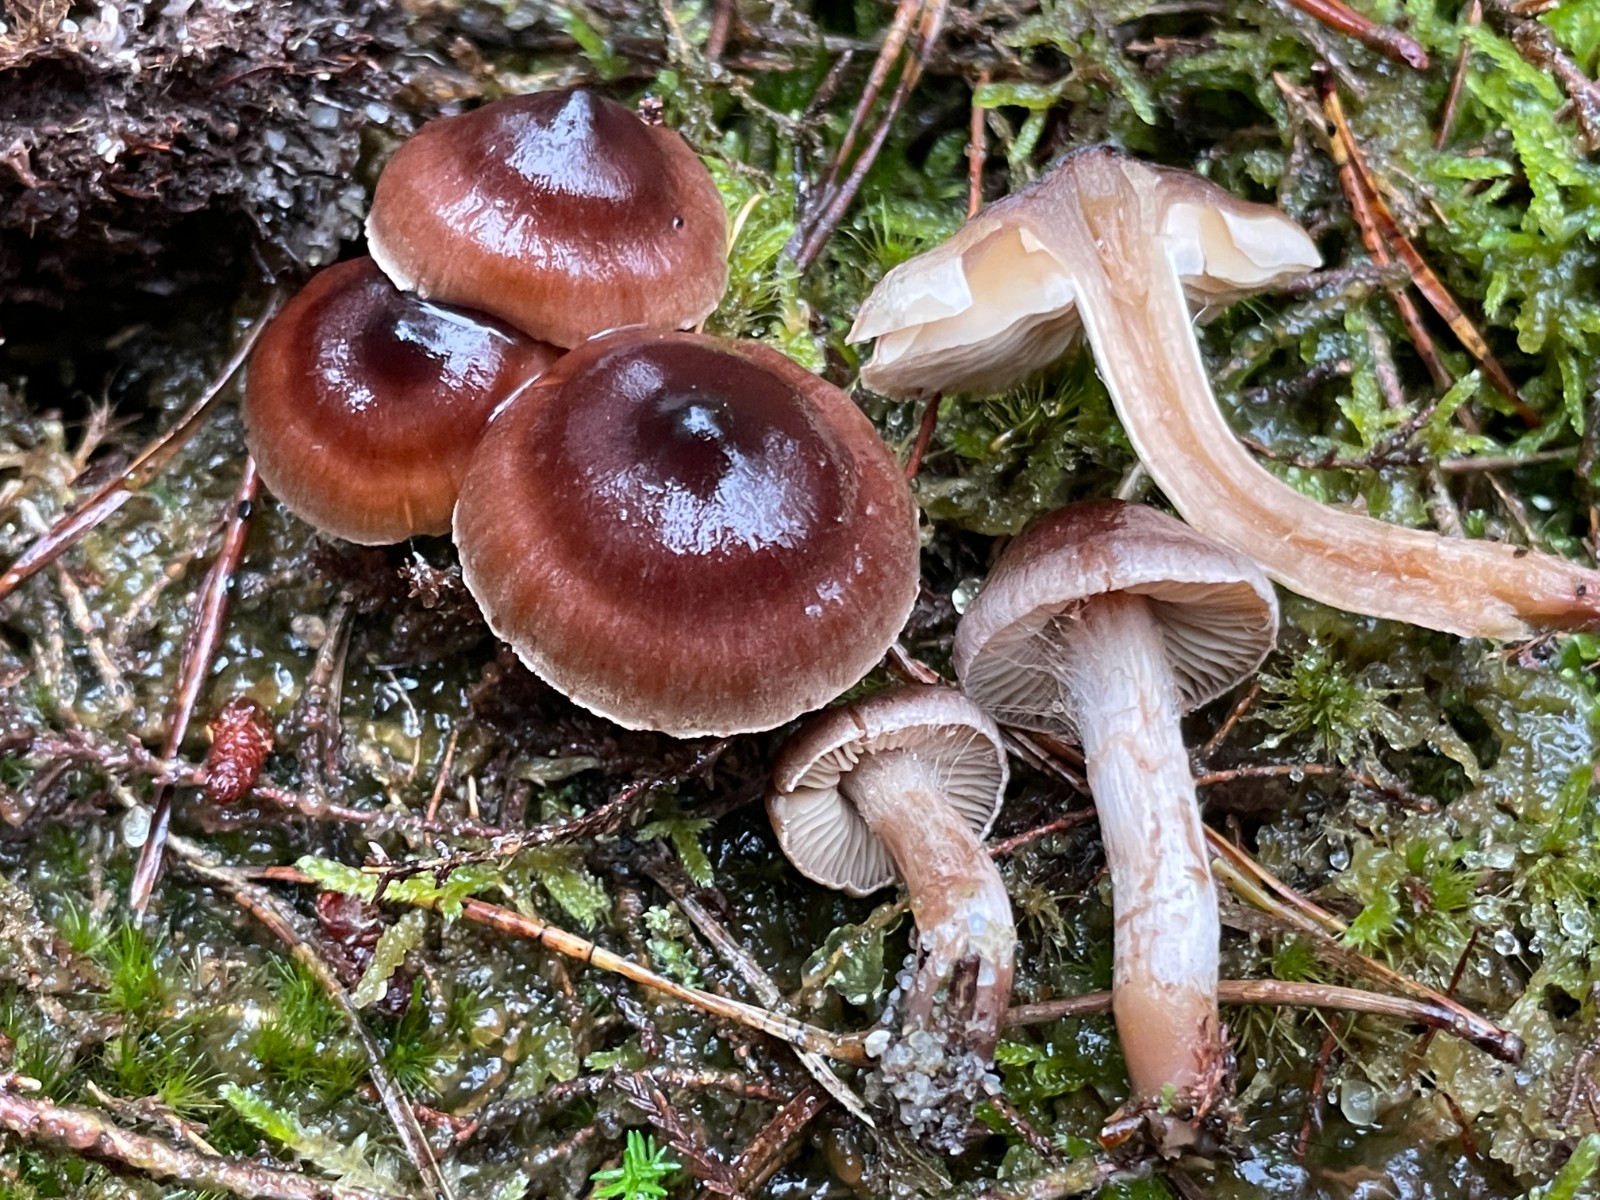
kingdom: Fungi
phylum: Basidiomycota
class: Agaricomycetes
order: Agaricales
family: Cortinariaceae
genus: Cortinarius
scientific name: Cortinarius
